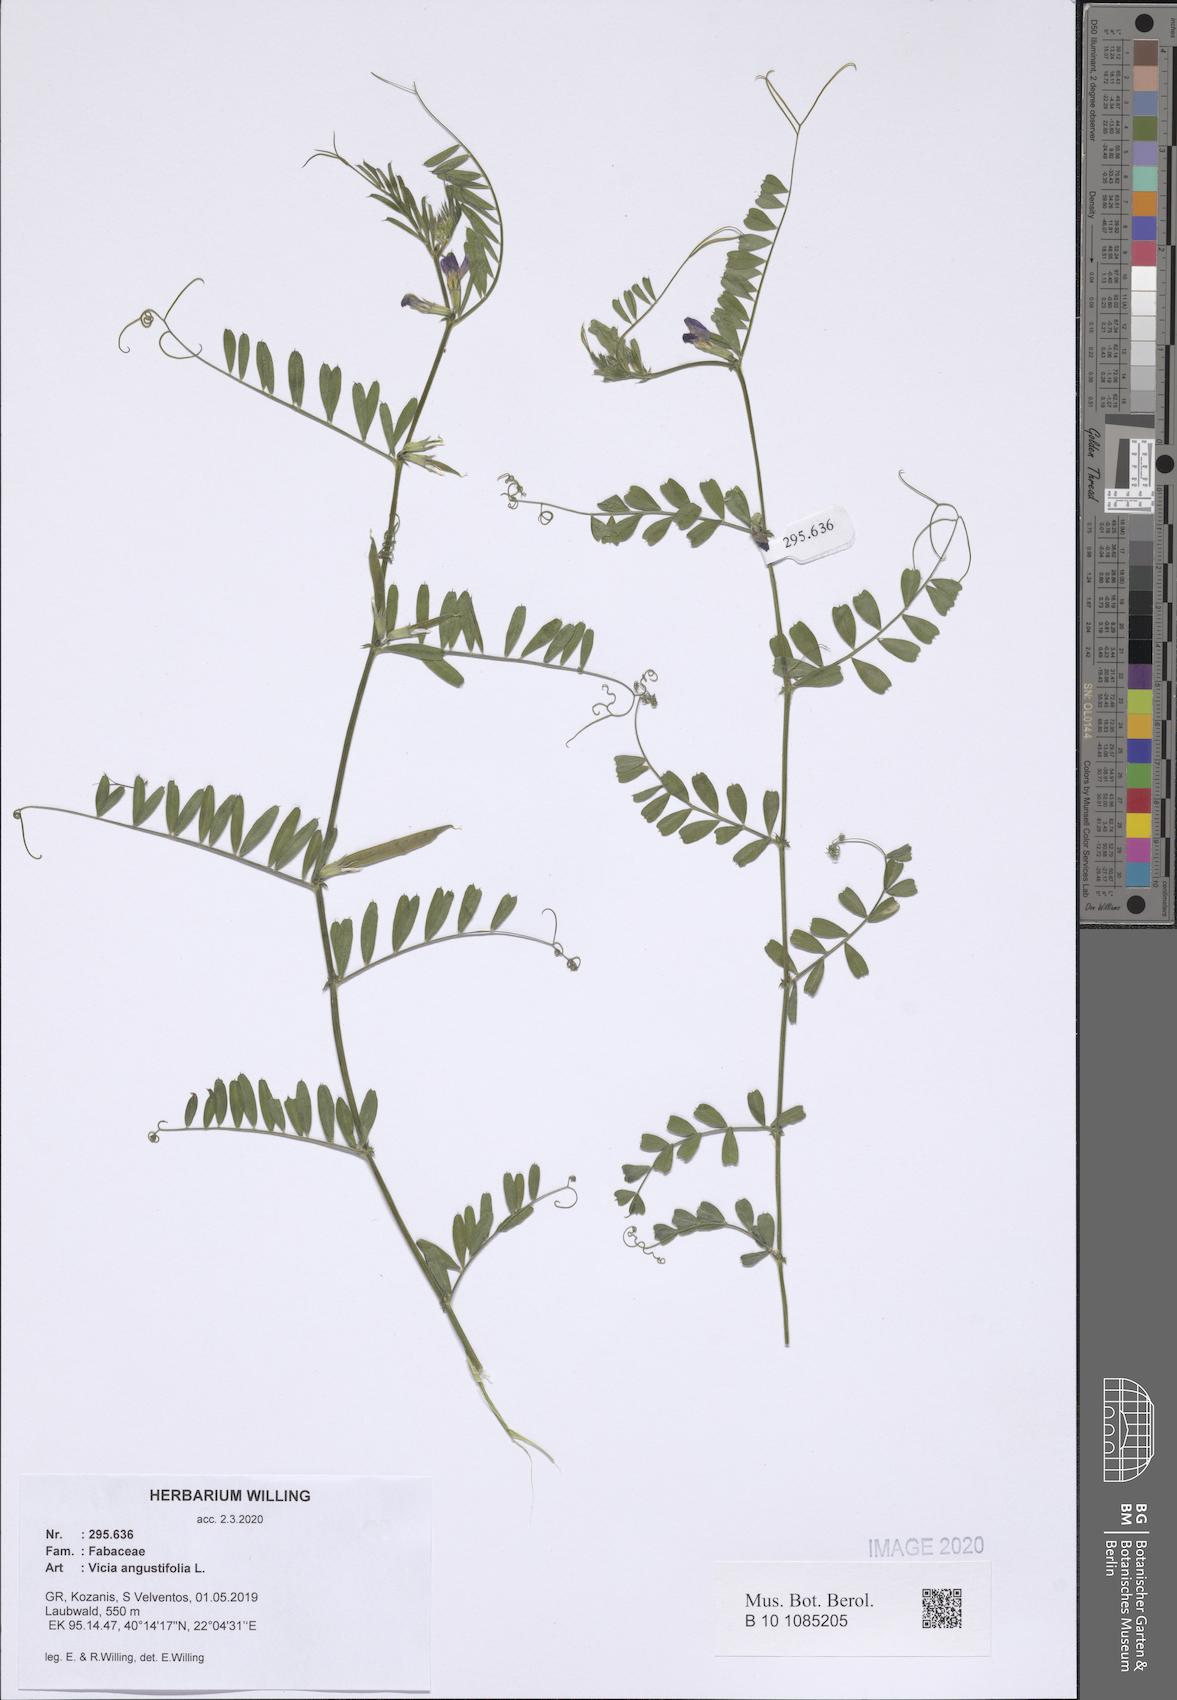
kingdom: Plantae
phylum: Tracheophyta
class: Magnoliopsida
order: Fabales
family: Fabaceae
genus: Vicia
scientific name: Vicia sativa
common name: Garden vetch
